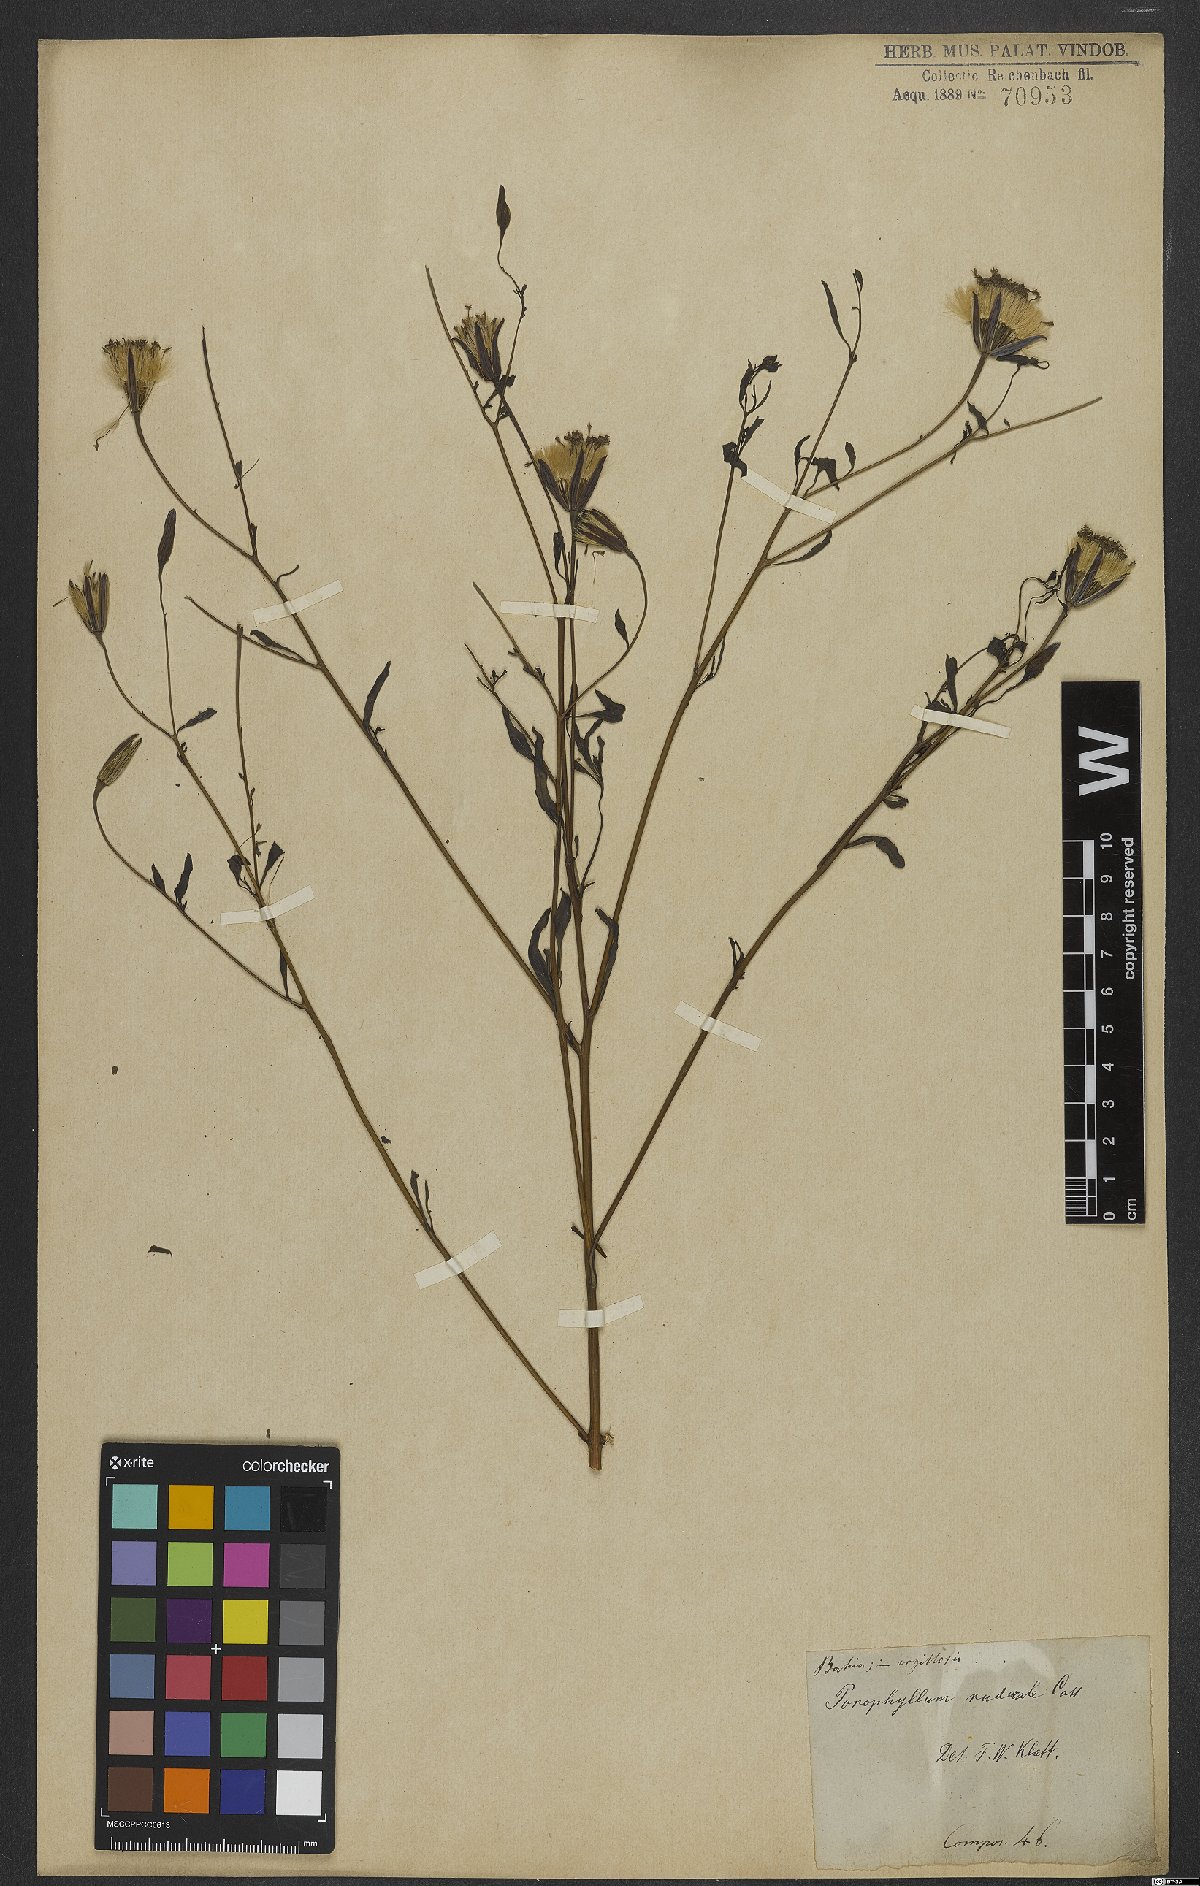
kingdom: Plantae
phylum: Tracheophyta
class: Magnoliopsida
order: Asterales
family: Asteraceae
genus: Porophyllum
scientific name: Porophyllum ruderale
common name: Yerba porosa
